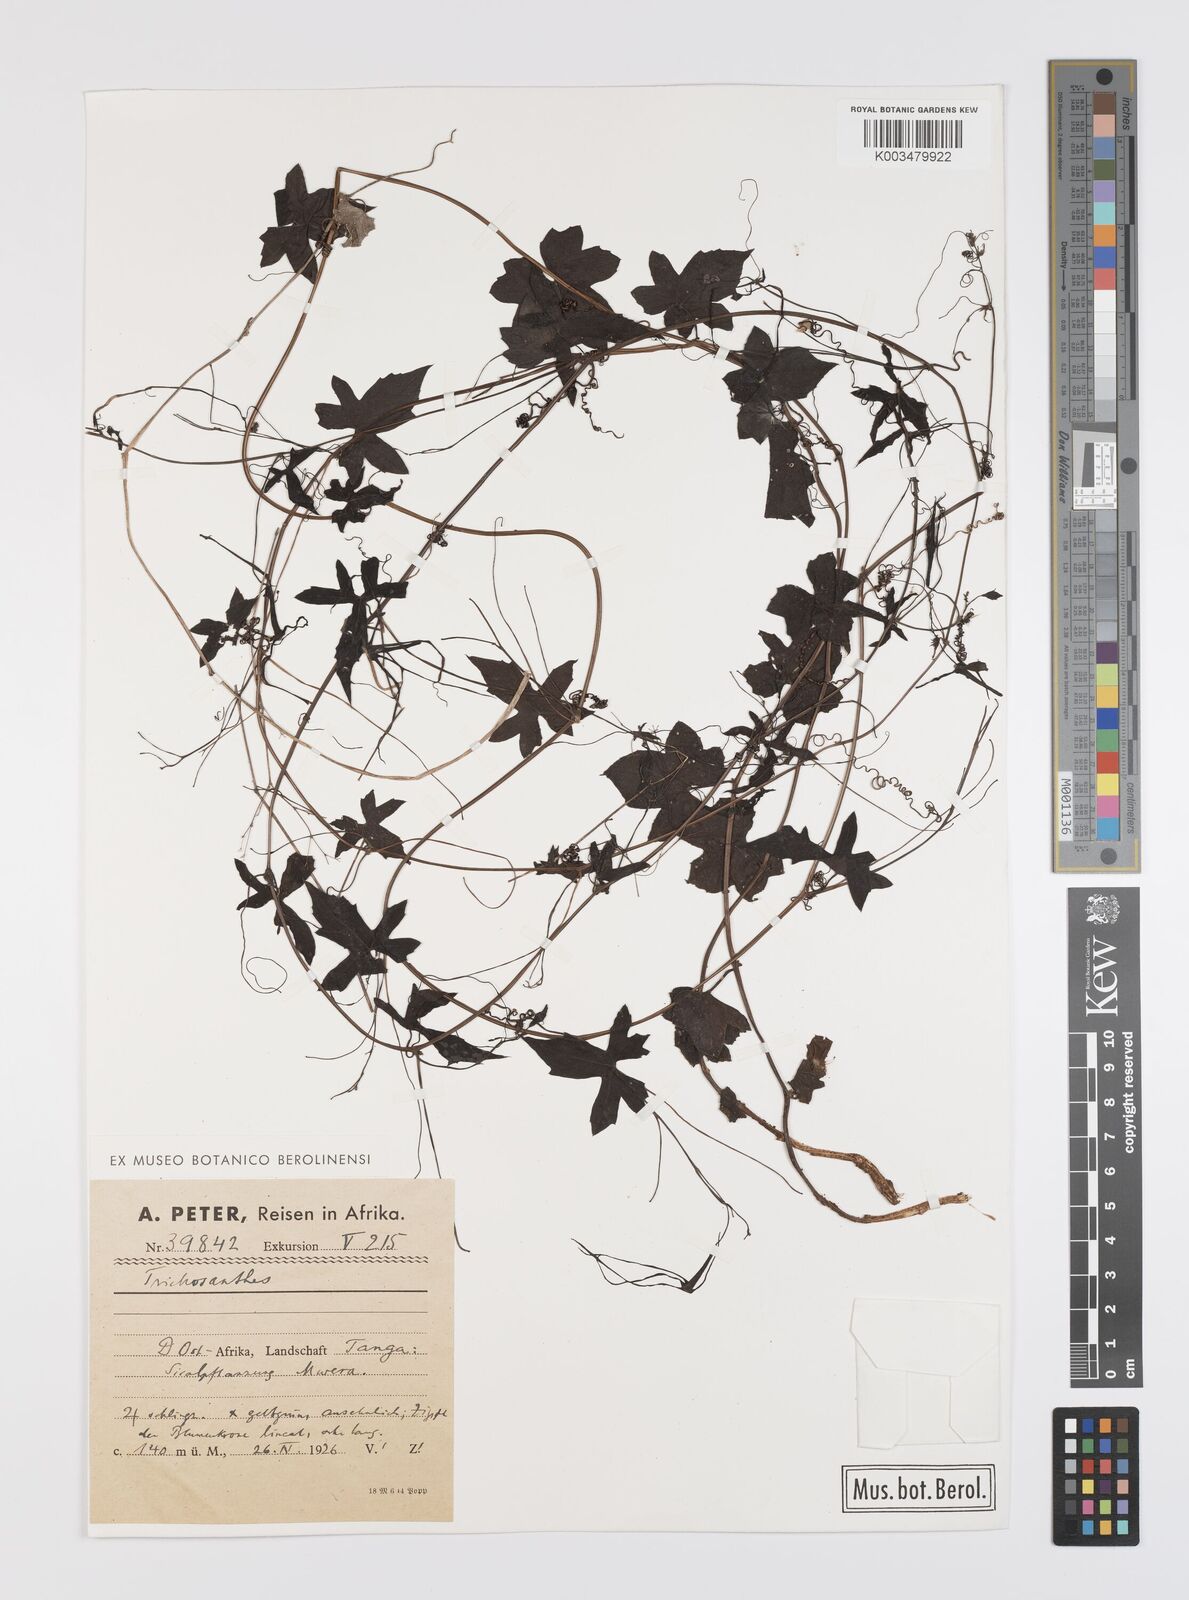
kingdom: Plantae
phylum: Tracheophyta
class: Magnoliopsida
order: Cucurbitales
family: Cucurbitaceae
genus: Trochomeria
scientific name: Trochomeria macrocarpa
